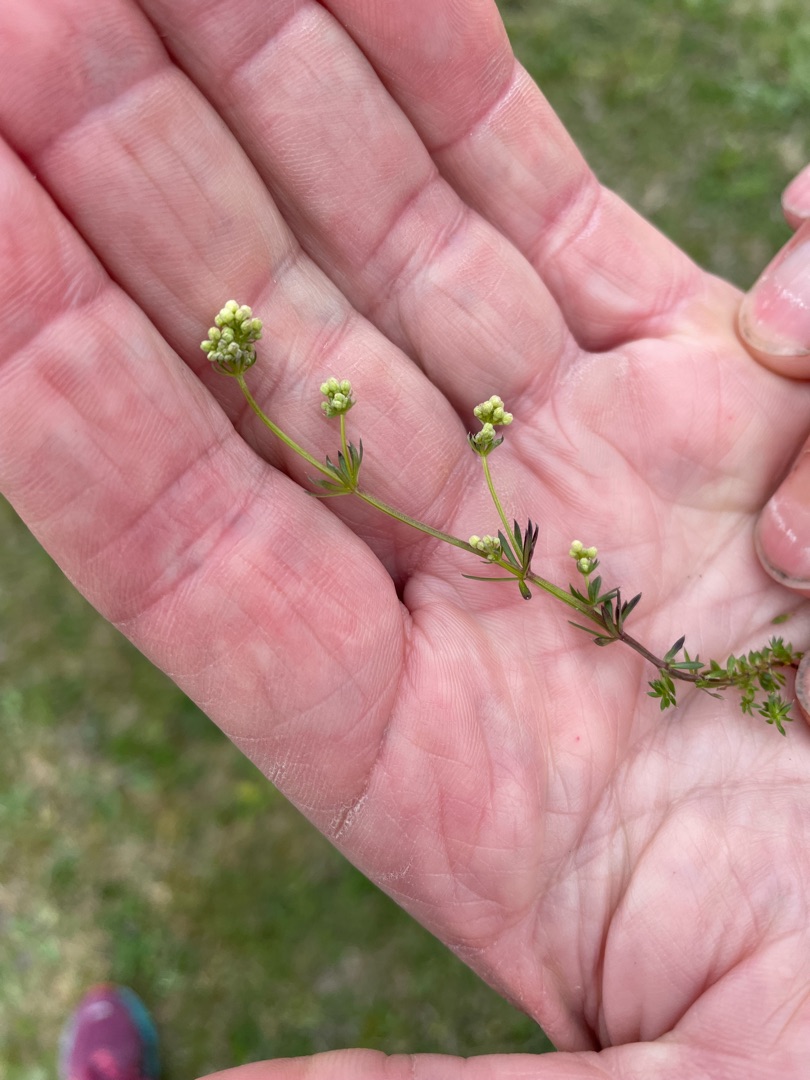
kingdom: Plantae
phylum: Tracheophyta
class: Magnoliopsida
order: Gentianales
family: Rubiaceae
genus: Galium
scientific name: Galium sterneri
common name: Liden snerre
